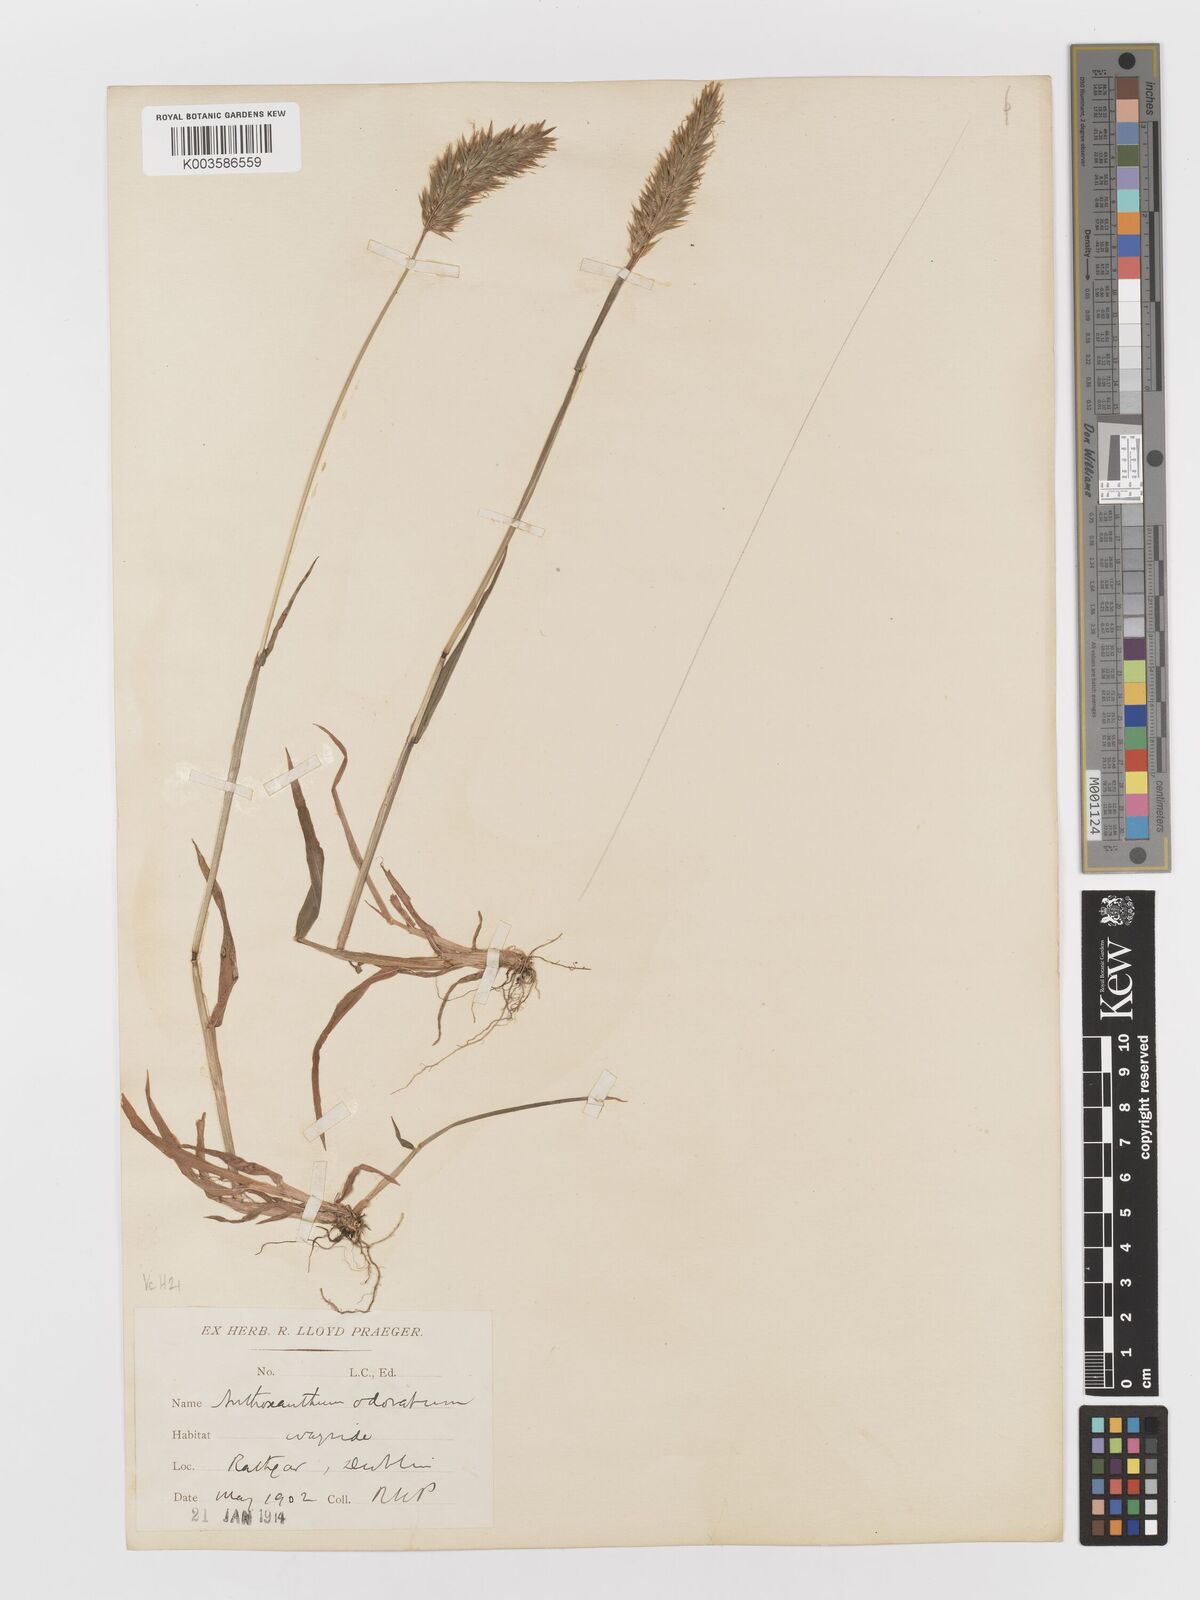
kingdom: Plantae
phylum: Tracheophyta
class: Liliopsida
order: Poales
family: Poaceae
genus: Anthoxanthum
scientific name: Anthoxanthum odoratum
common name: Sweet vernalgrass
